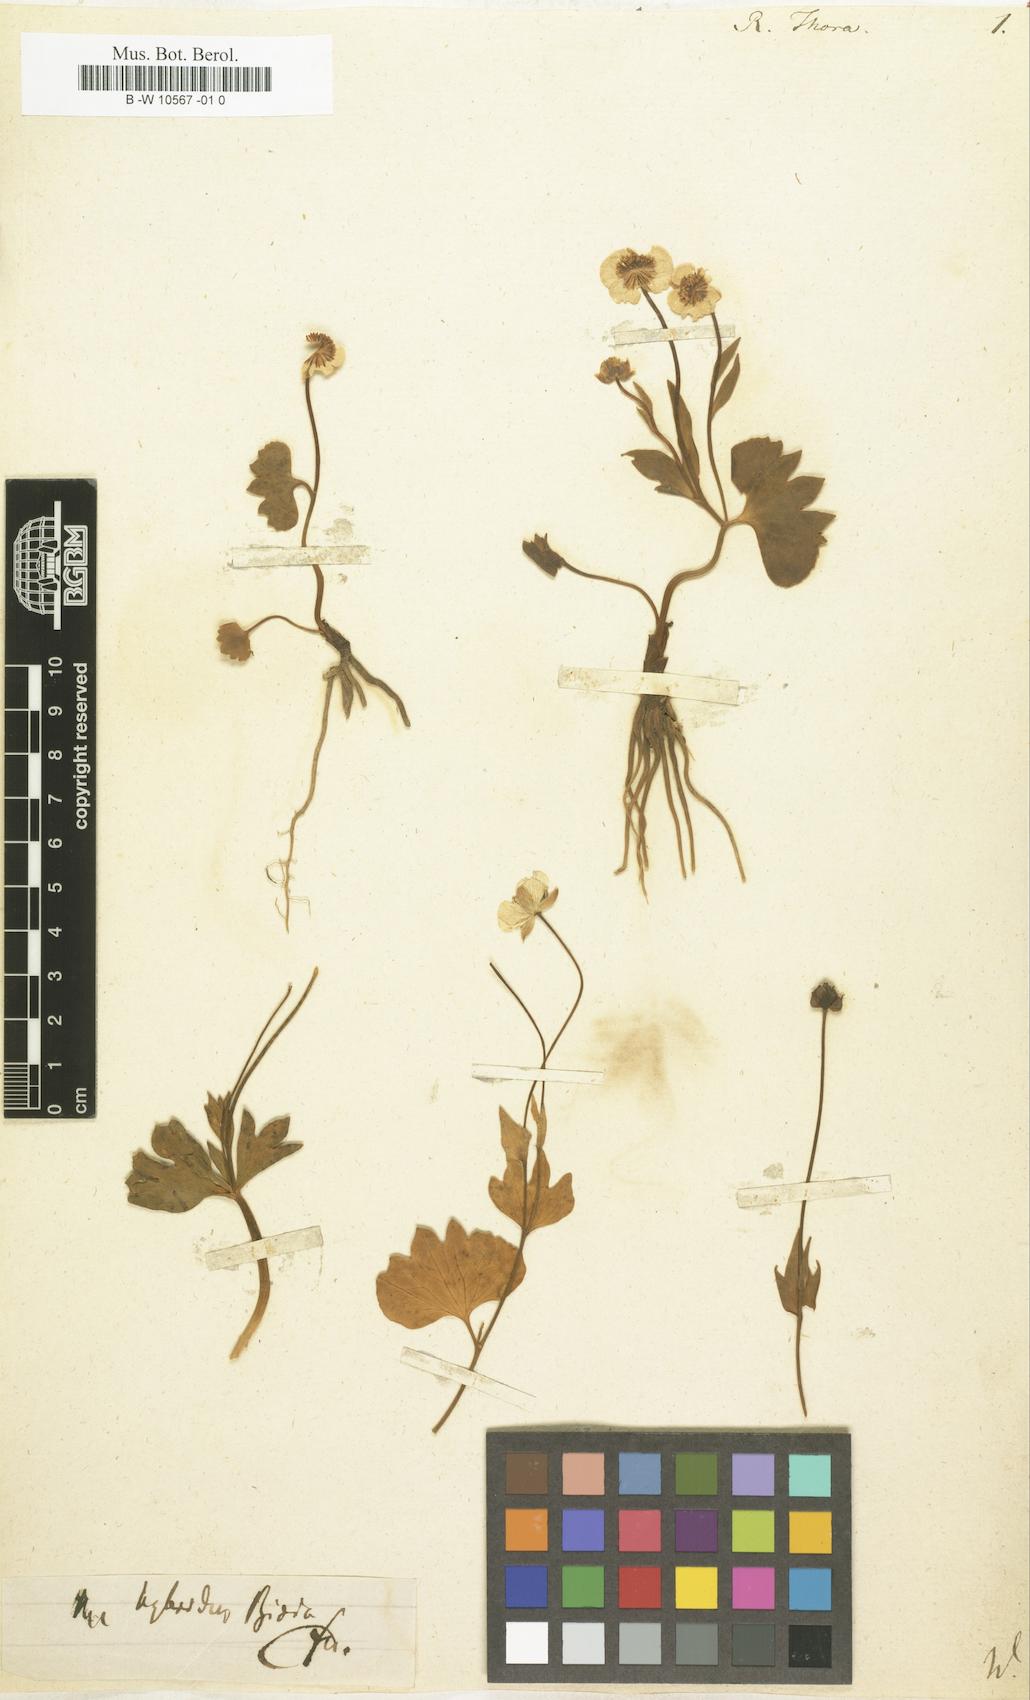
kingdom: Plantae
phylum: Tracheophyta
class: Magnoliopsida
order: Ranunculales
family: Ranunculaceae
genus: Ranunculus
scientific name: Ranunculus thora
